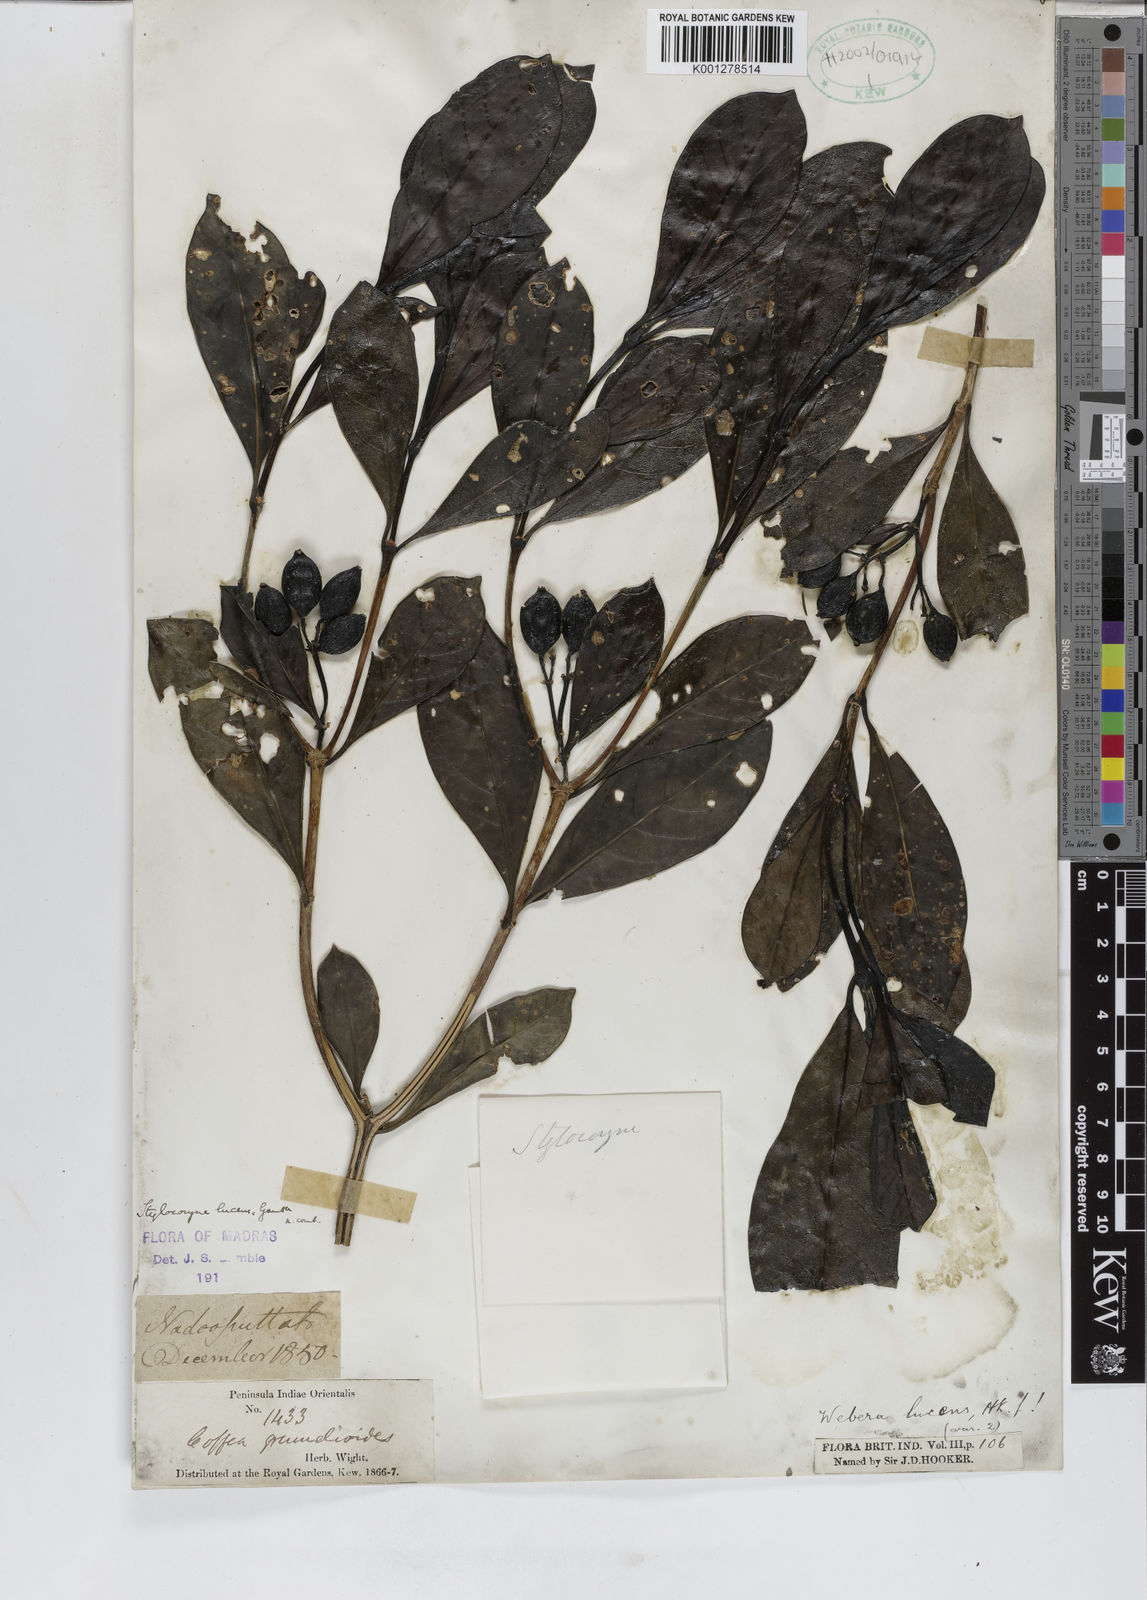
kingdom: Plantae
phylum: Tracheophyta
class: Magnoliopsida
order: Gentianales
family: Rubiaceae
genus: Tarenna
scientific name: Tarenna alpestris
